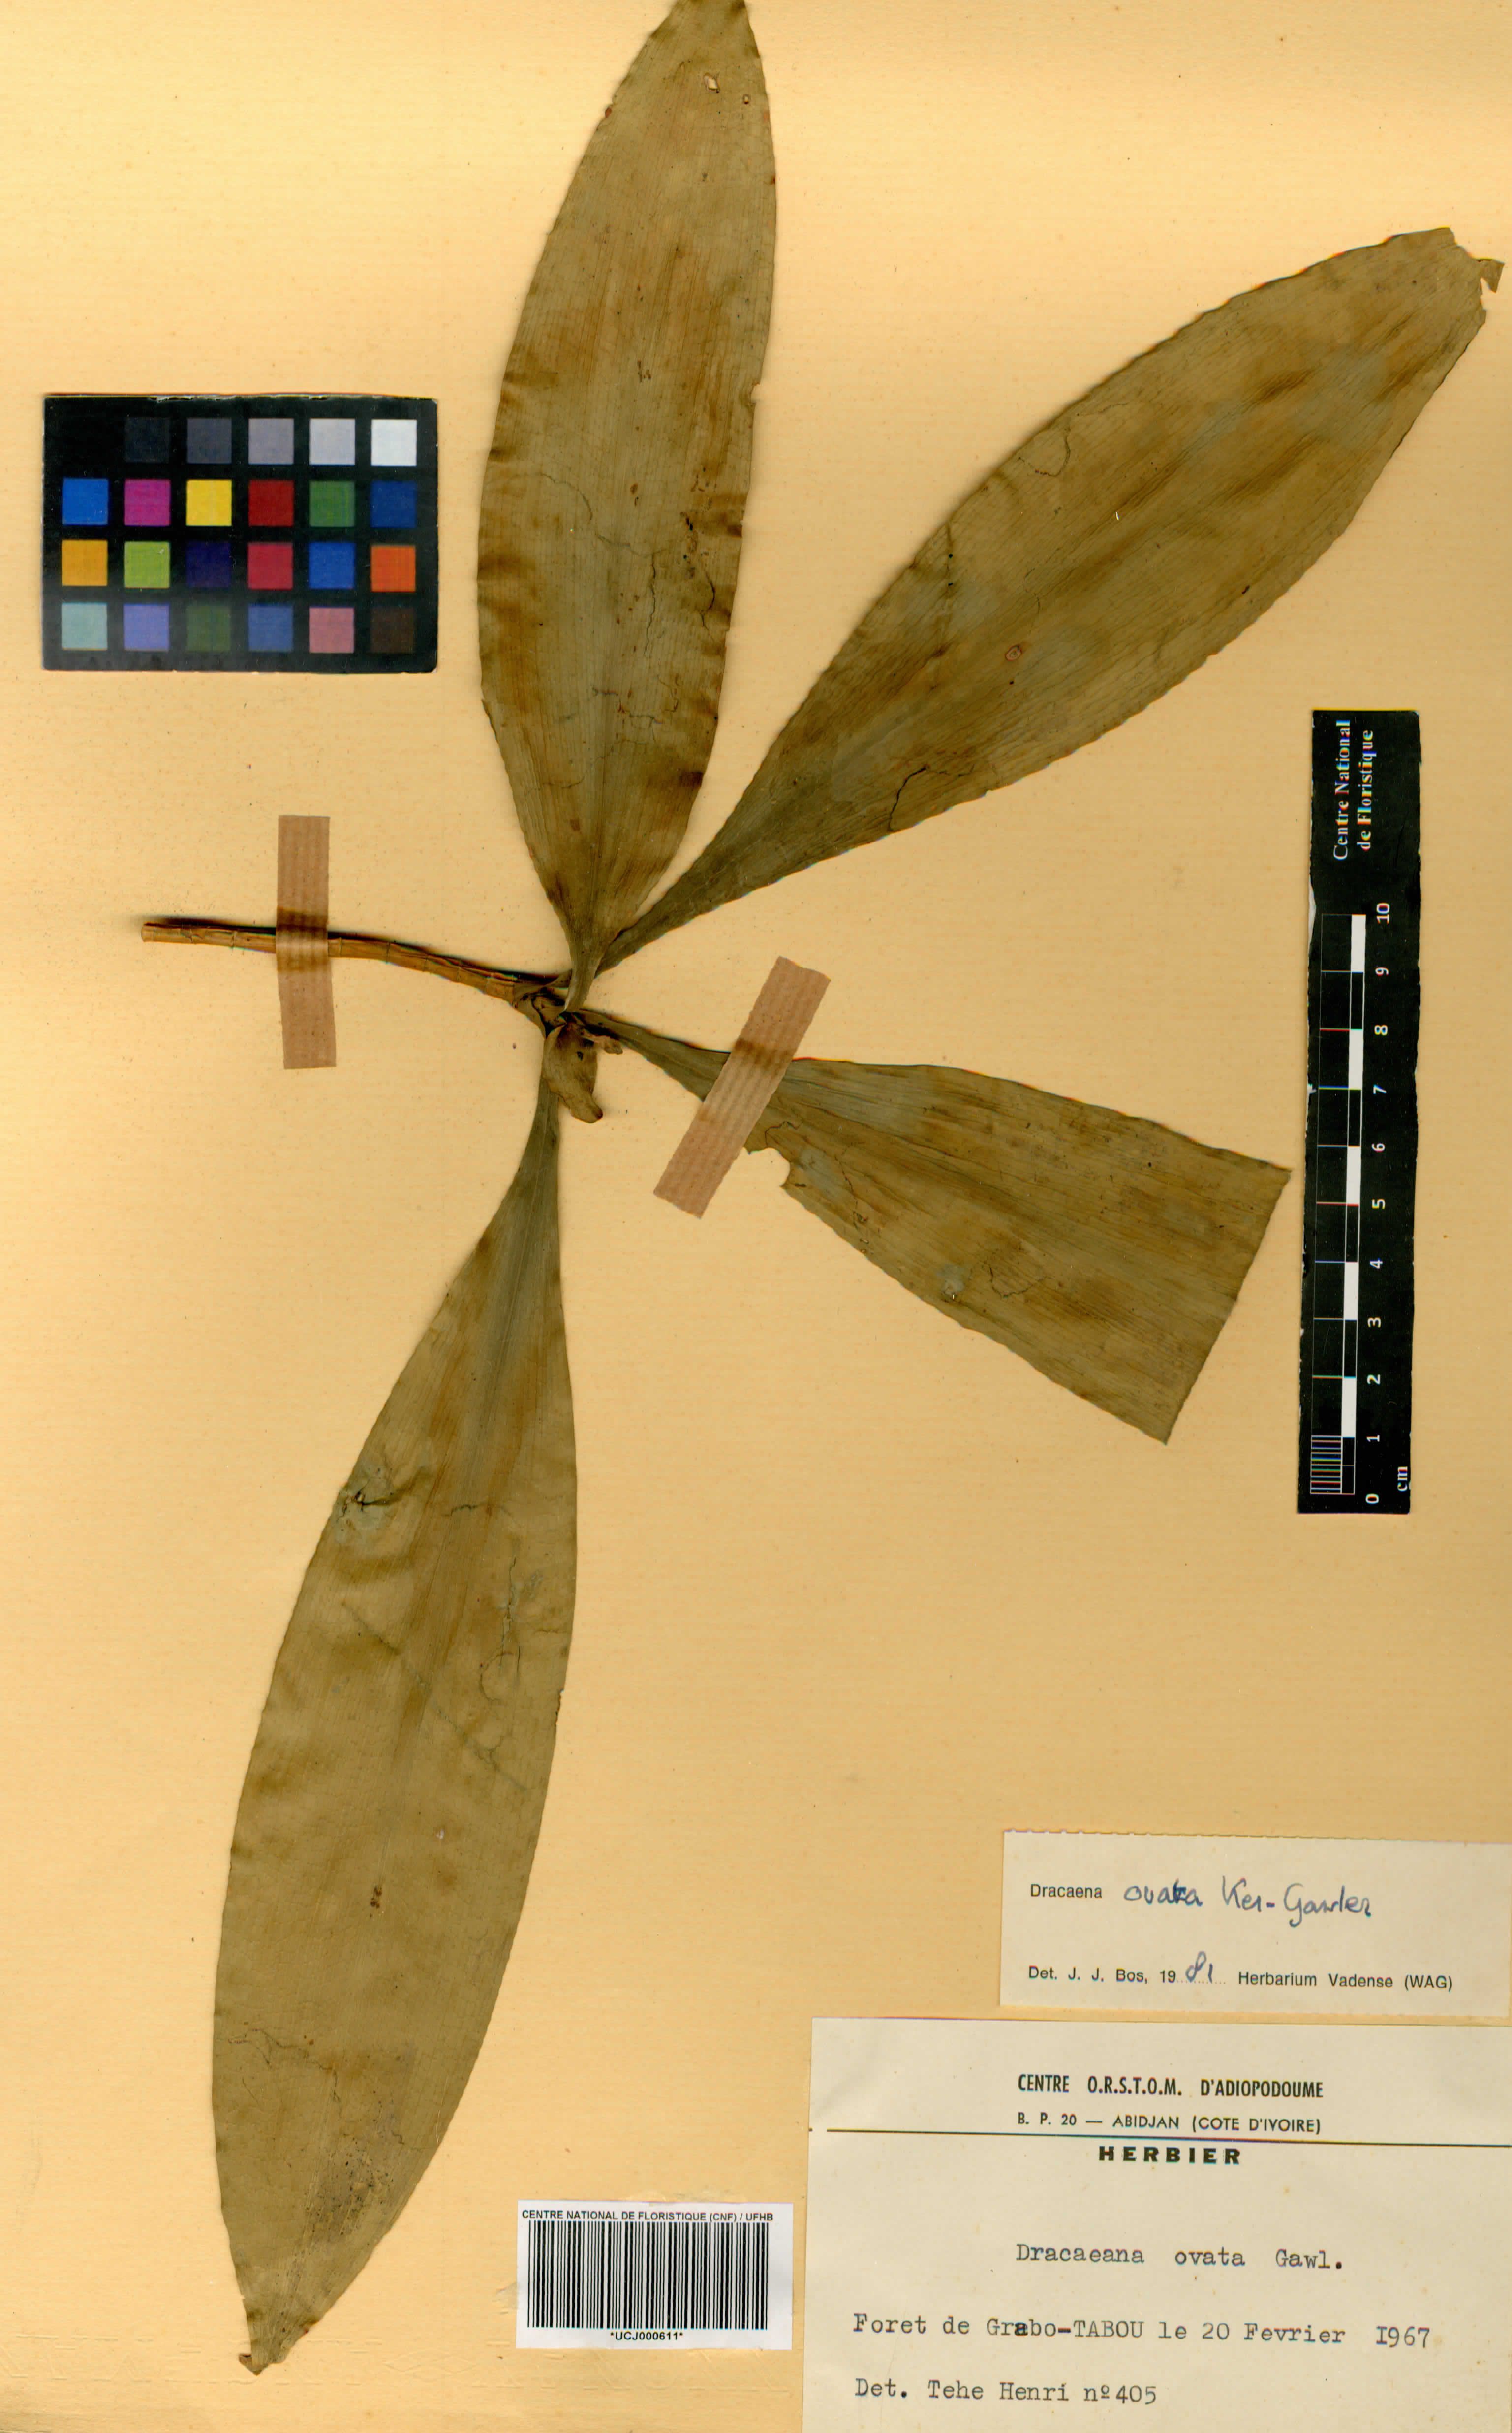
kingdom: Plantae
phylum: Tracheophyta
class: Liliopsida
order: Asparagales
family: Asparagaceae
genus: Dracaena
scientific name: Dracaena ovata
